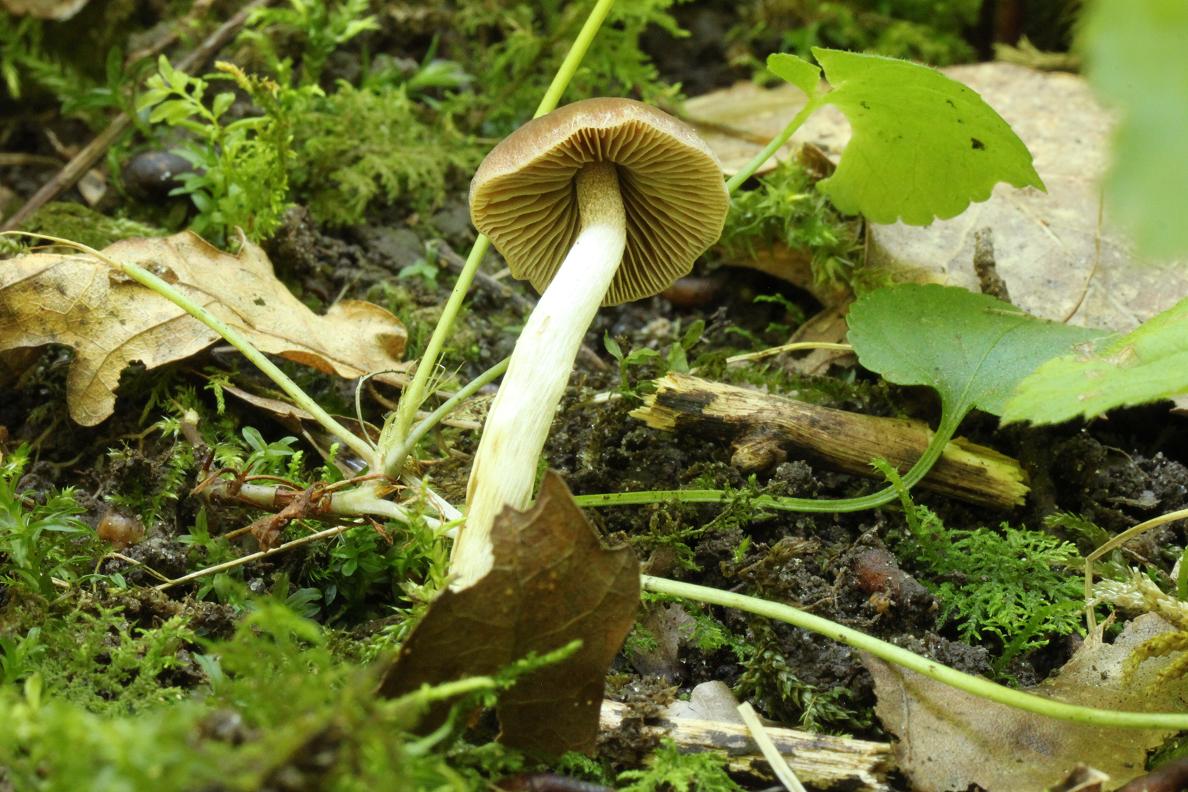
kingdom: Fungi
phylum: Basidiomycota
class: Agaricomycetes
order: Agaricales
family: Hymenogastraceae
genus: Naucoria
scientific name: Naucoria bohemica
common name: birke-knaphat
